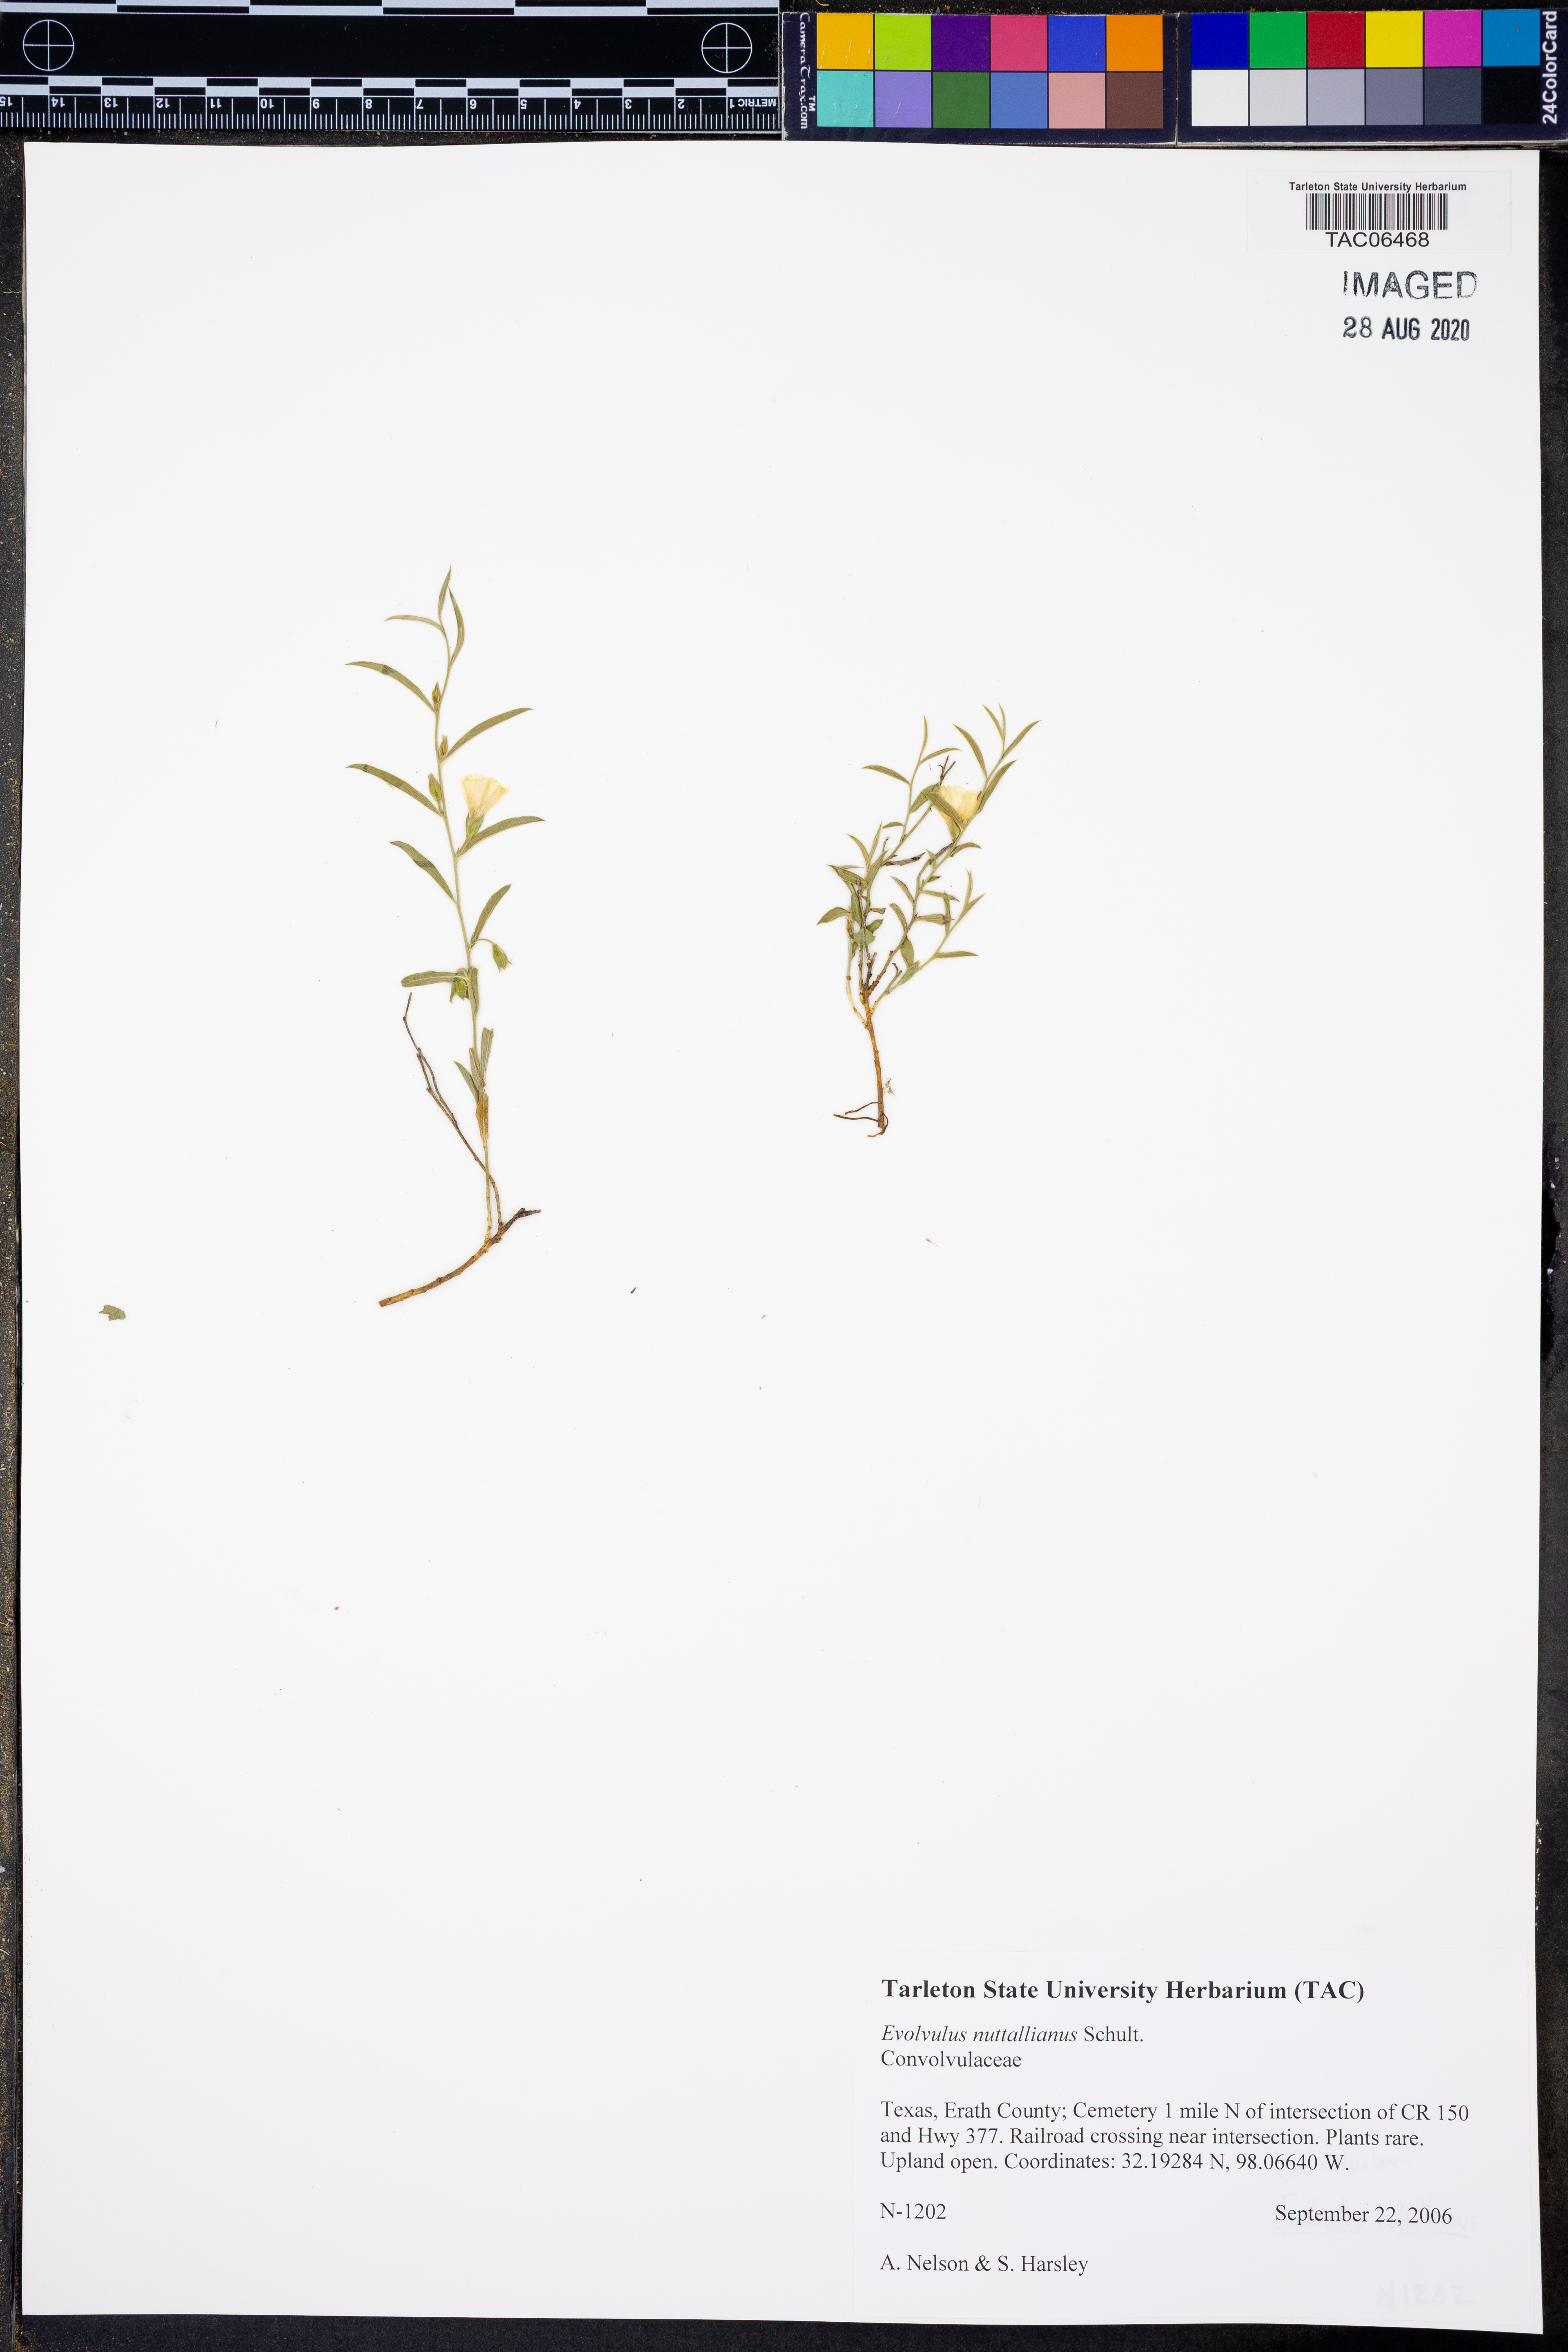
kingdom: Plantae
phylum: Tracheophyta
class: Magnoliopsida
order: Solanales
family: Convolvulaceae
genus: Evolvulus
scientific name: Evolvulus nuttallianus
